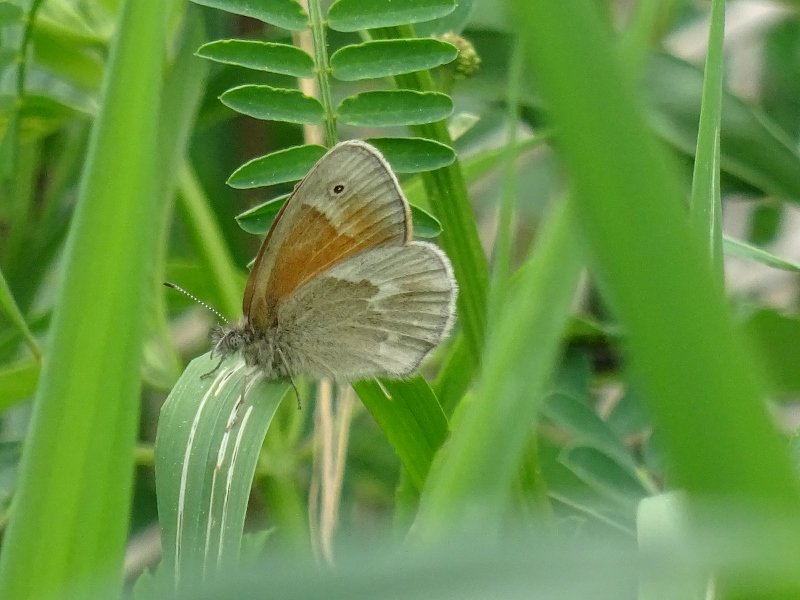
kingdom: Animalia
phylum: Arthropoda
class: Insecta
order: Lepidoptera
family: Nymphalidae
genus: Coenonympha
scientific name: Coenonympha tullia
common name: Large Heath
